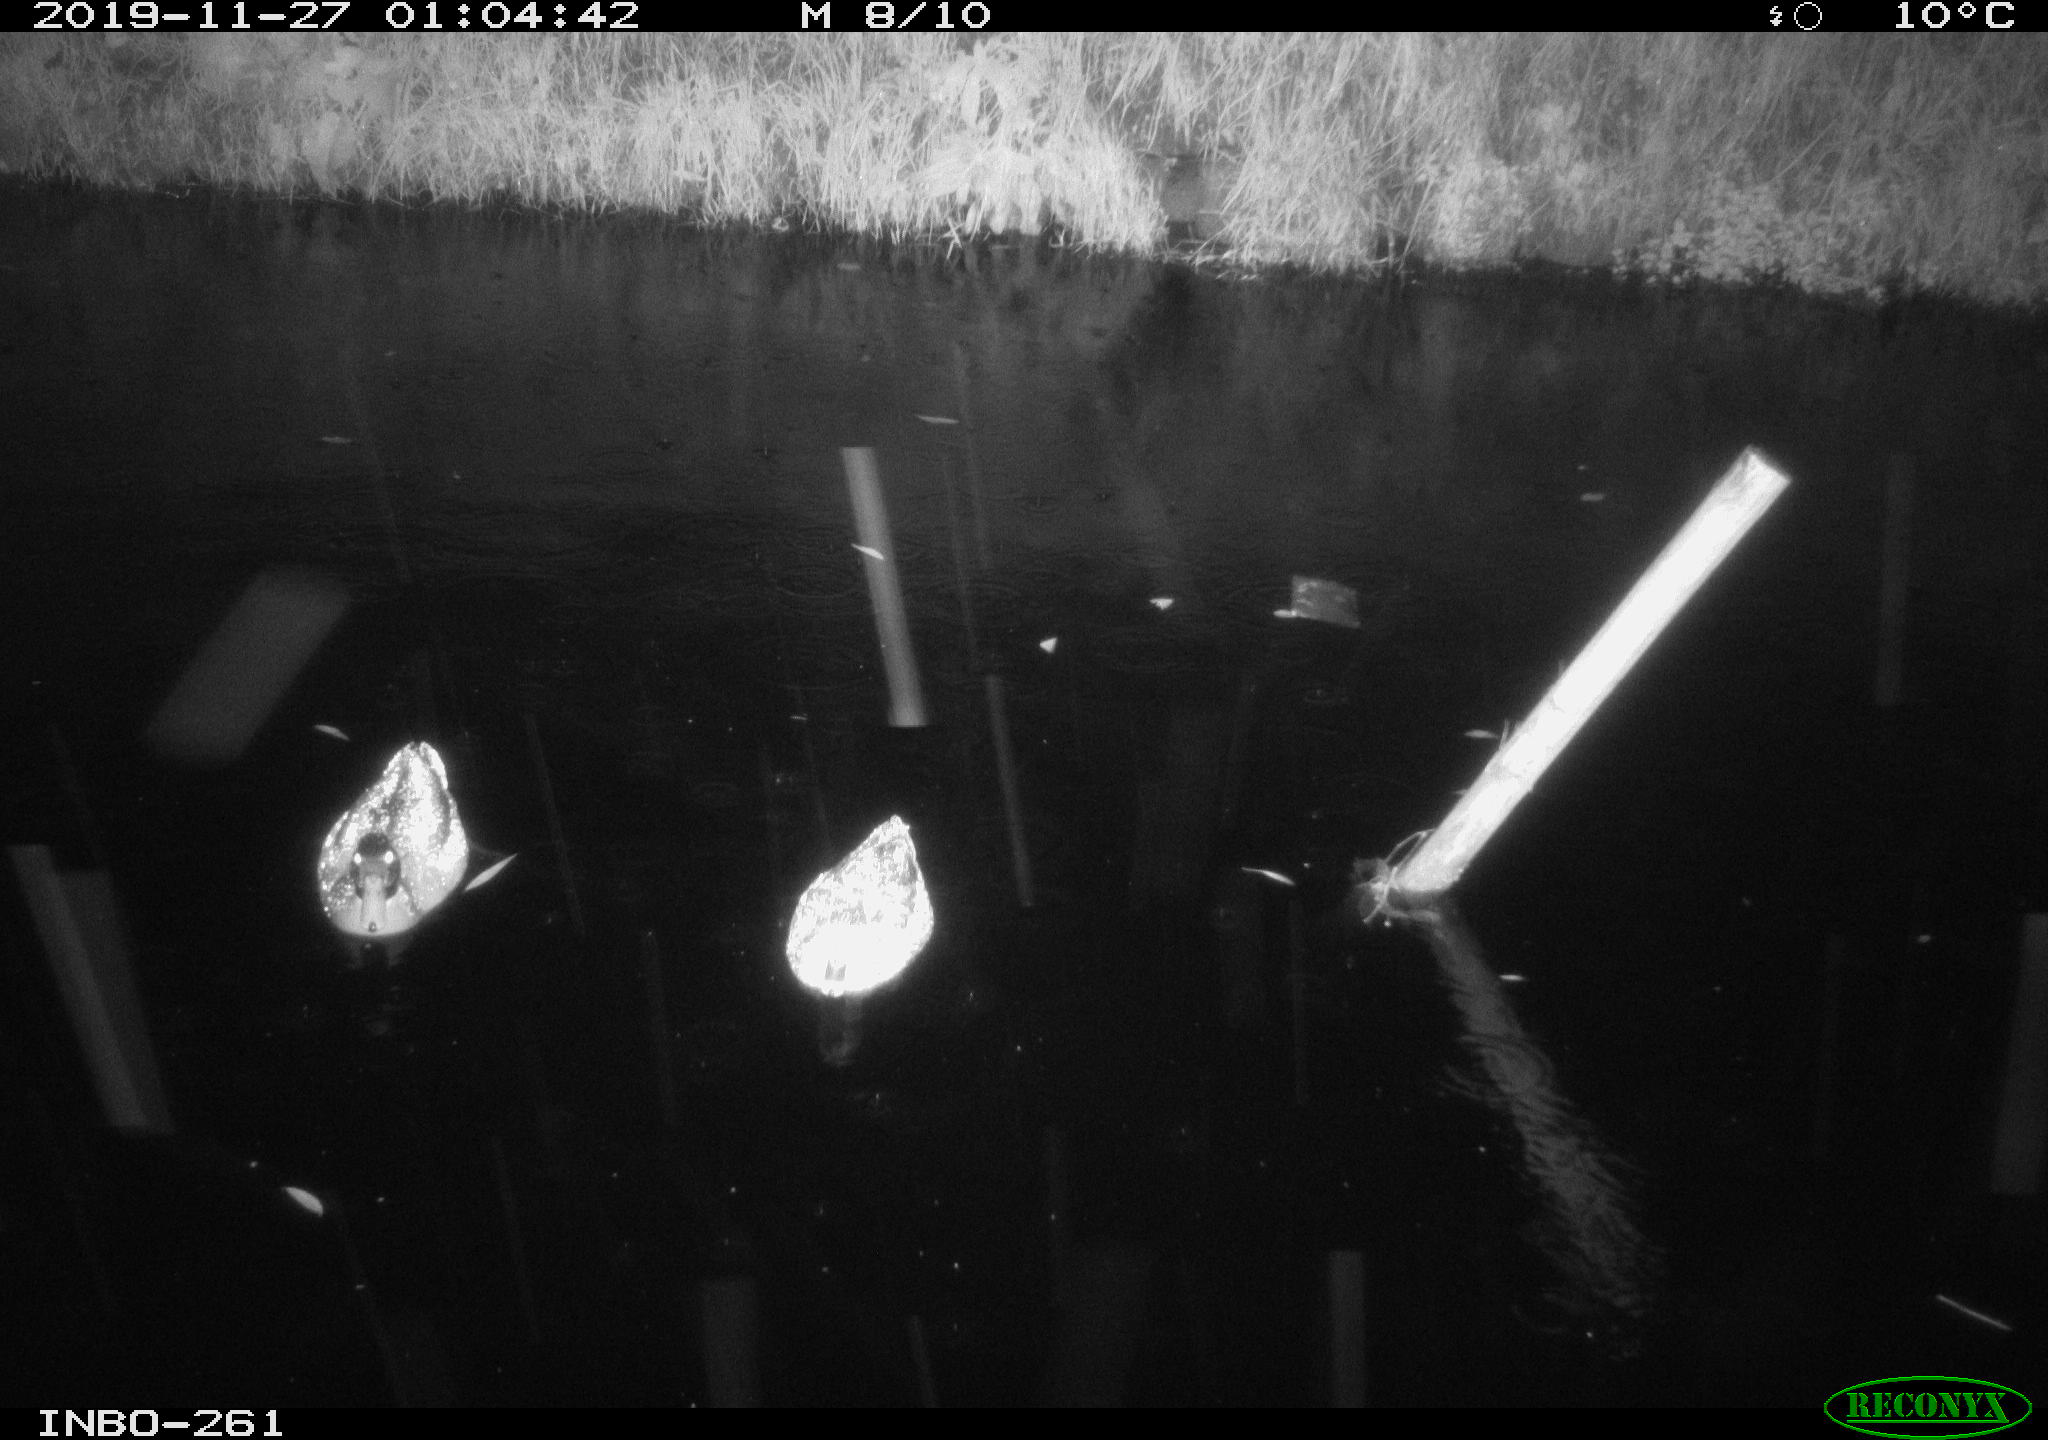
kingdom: Animalia
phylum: Chordata
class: Aves
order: Anseriformes
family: Anatidae
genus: Anas
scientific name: Anas platyrhynchos
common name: Mallard
